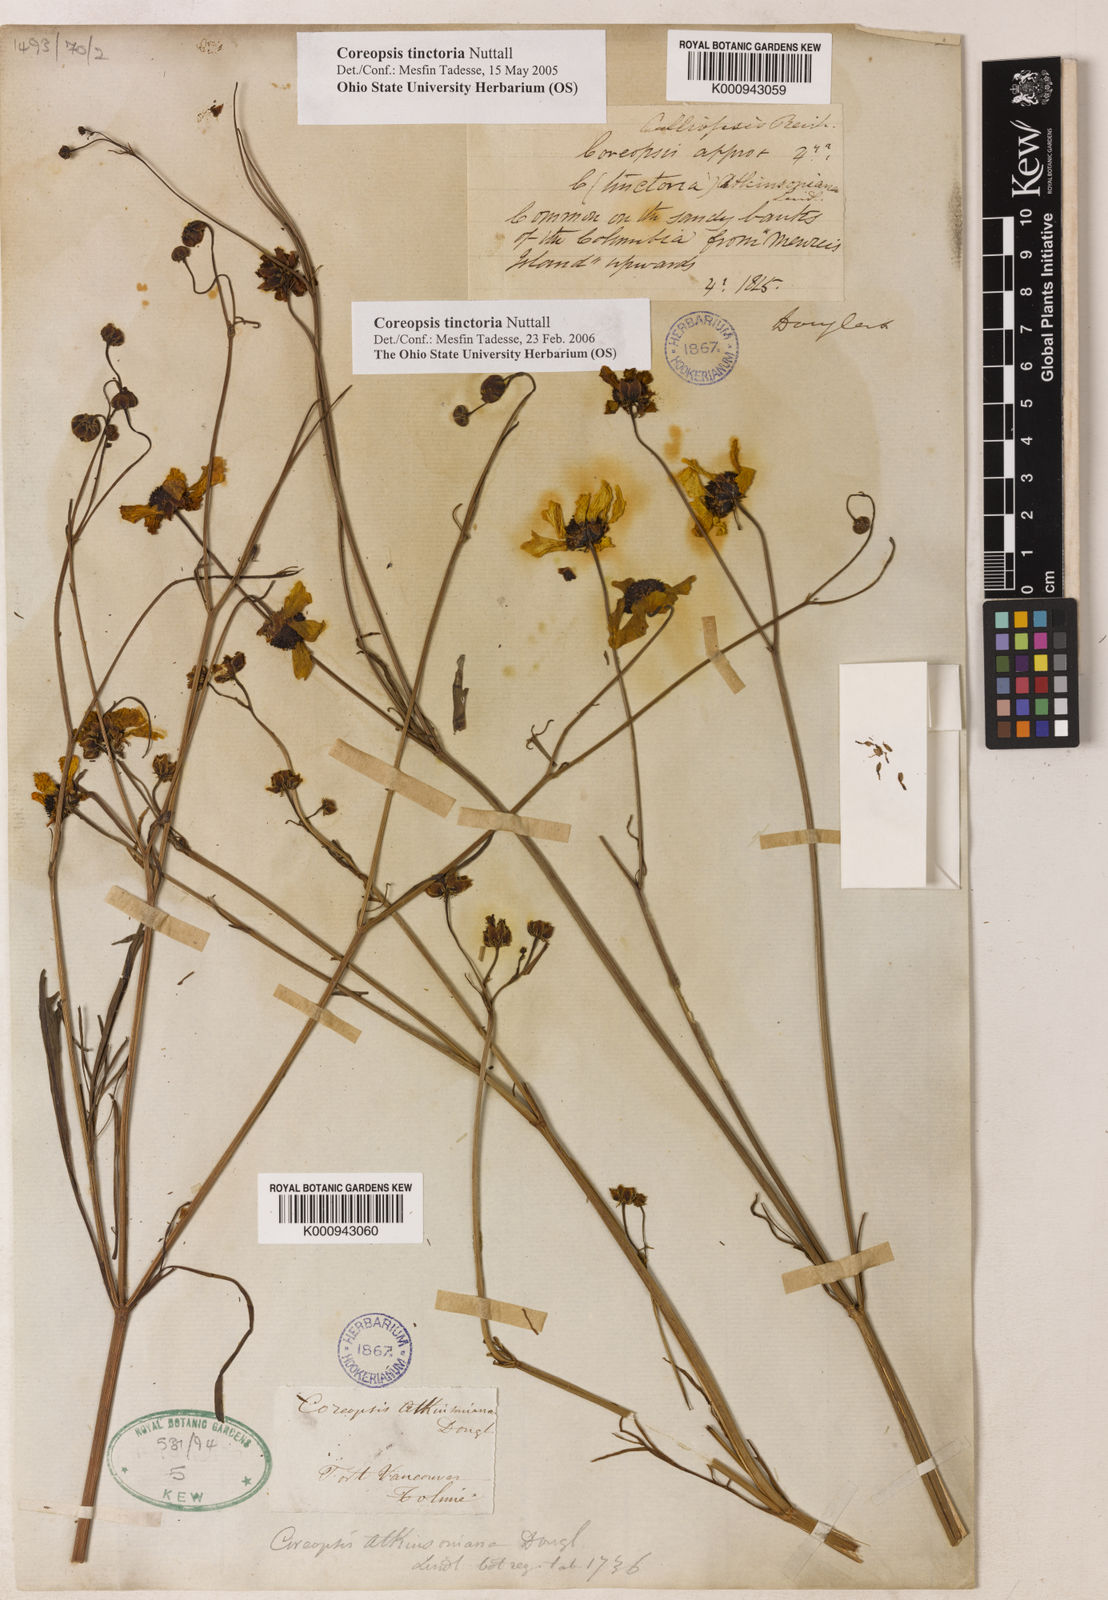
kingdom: Plantae
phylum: Tracheophyta
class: Magnoliopsida
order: Asterales
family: Asteraceae
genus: Coreopsis
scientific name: Coreopsis tinctoria
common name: Garden tickseed
